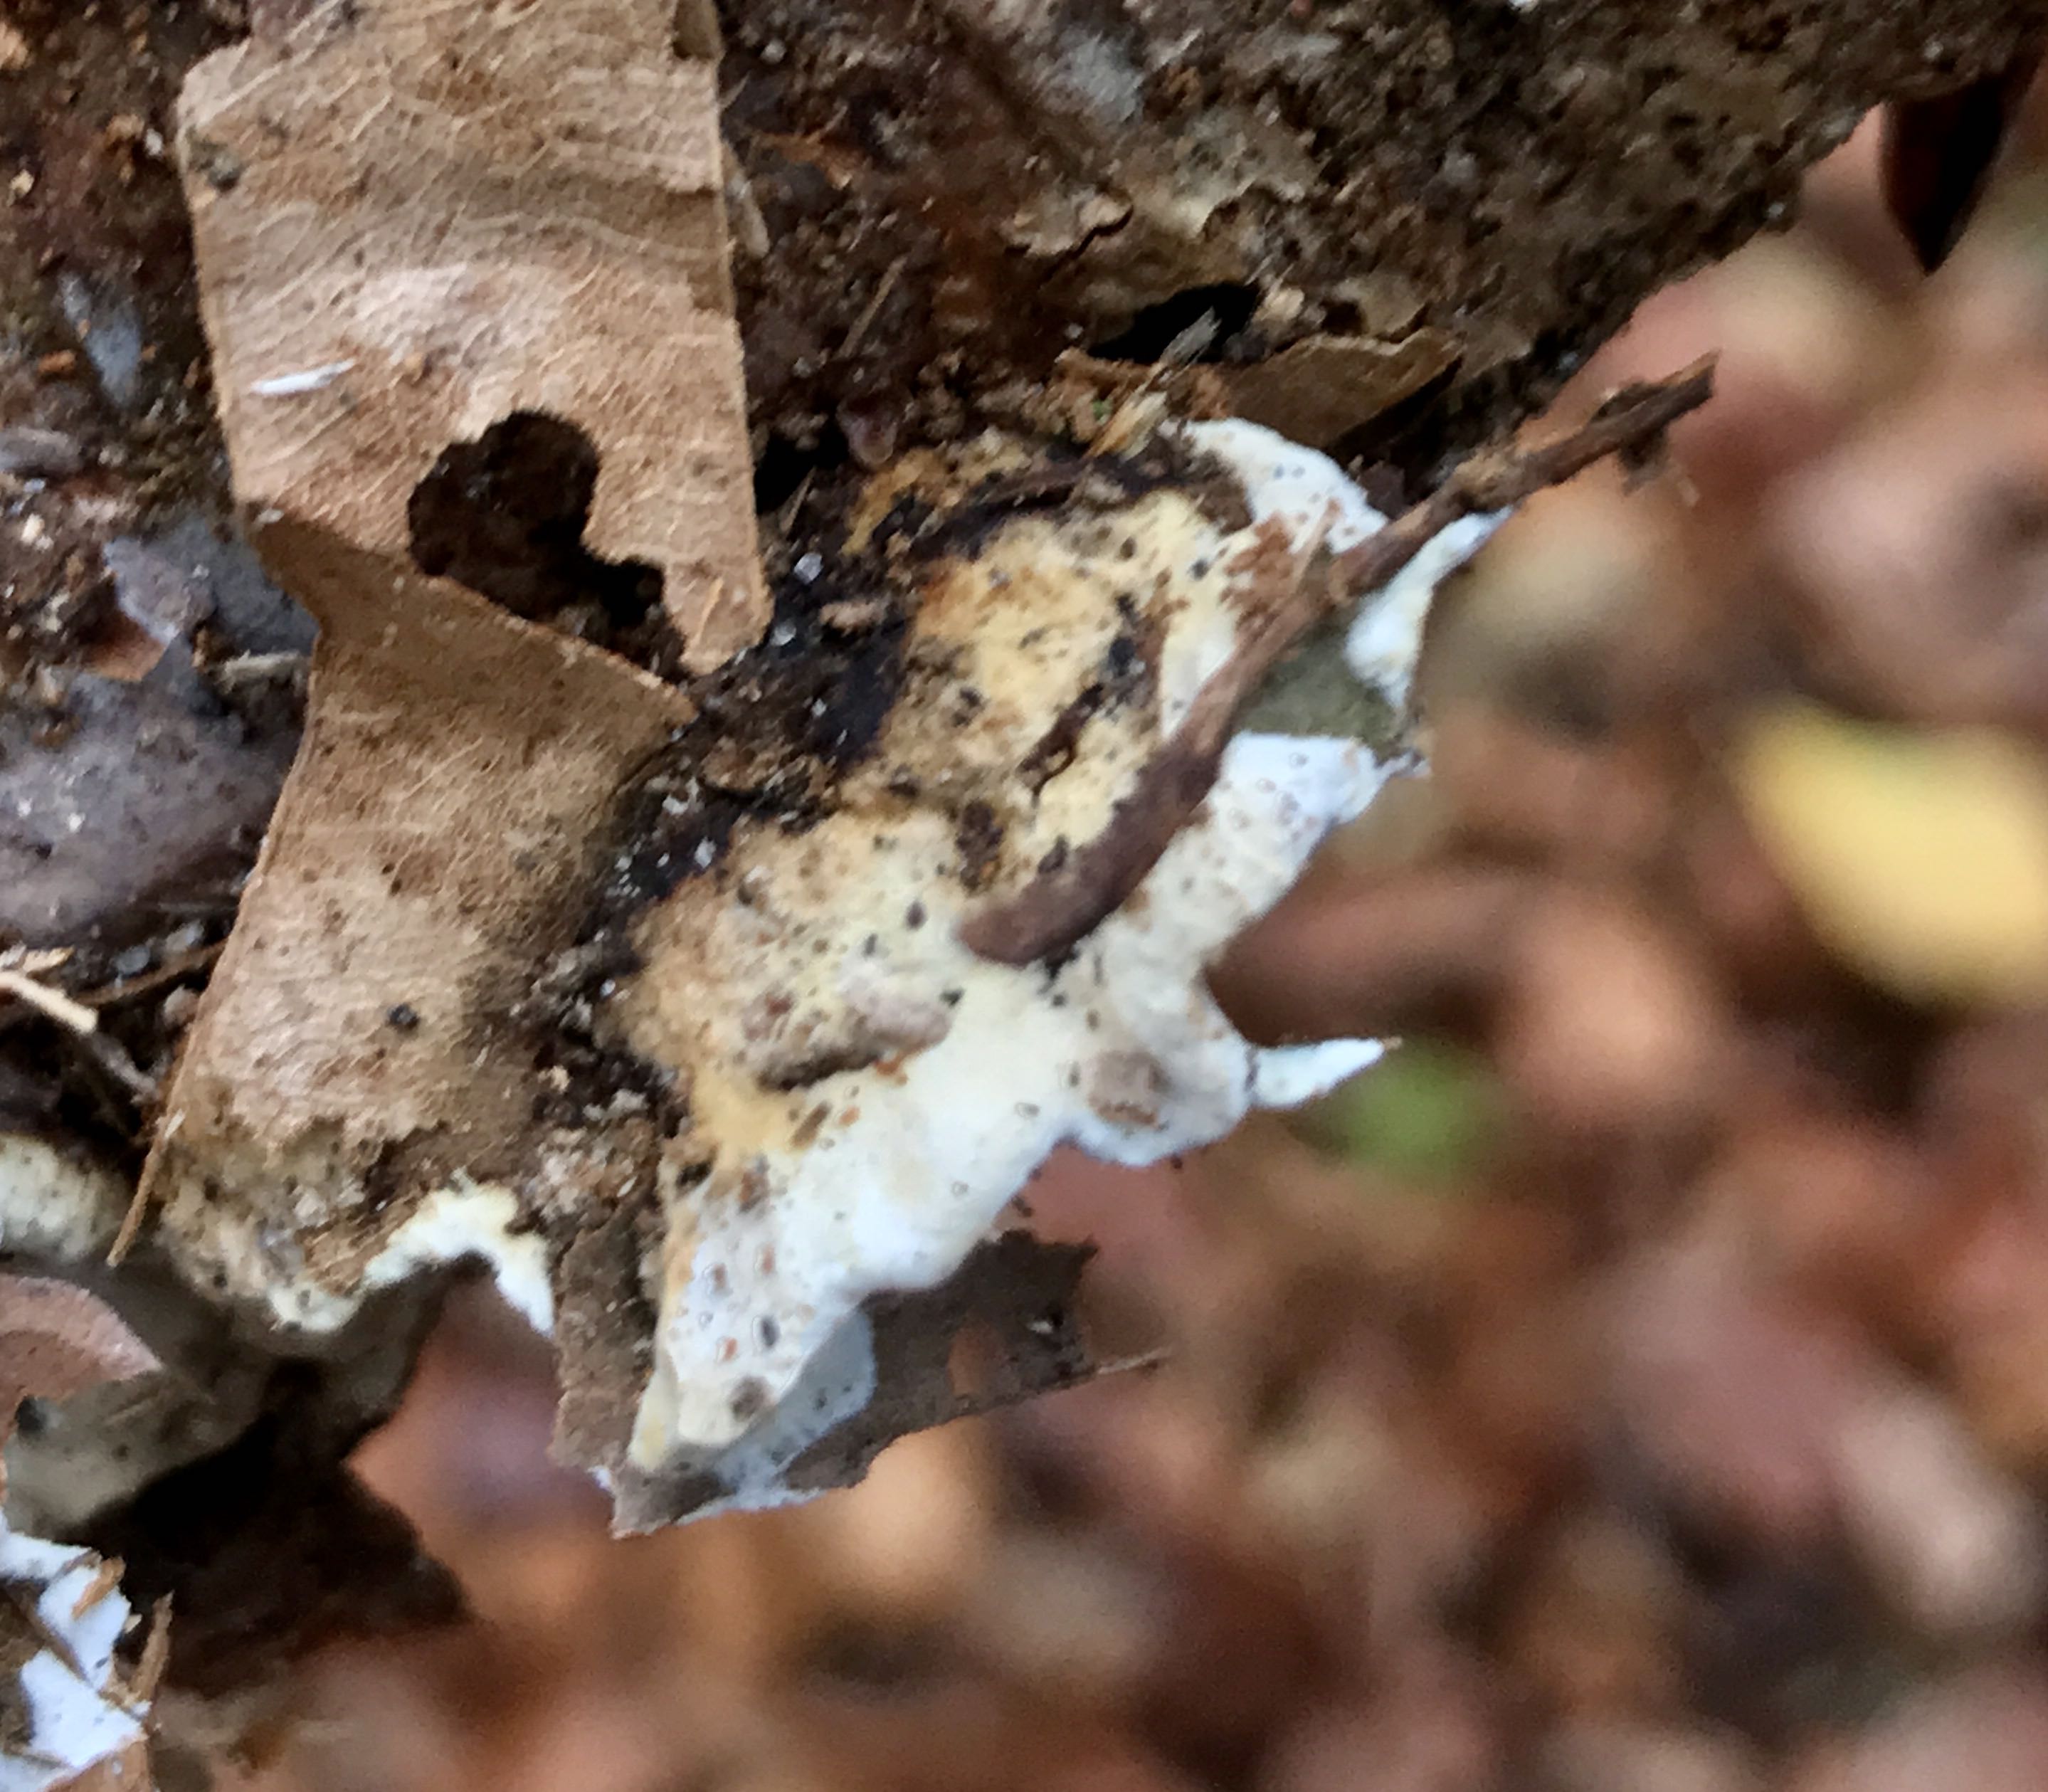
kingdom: Fungi
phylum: Basidiomycota
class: Agaricomycetes
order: Polyporales
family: Incrustoporiaceae
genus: Skeletocutis
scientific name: Skeletocutis nemoralis
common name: stor krystalporesvamp
